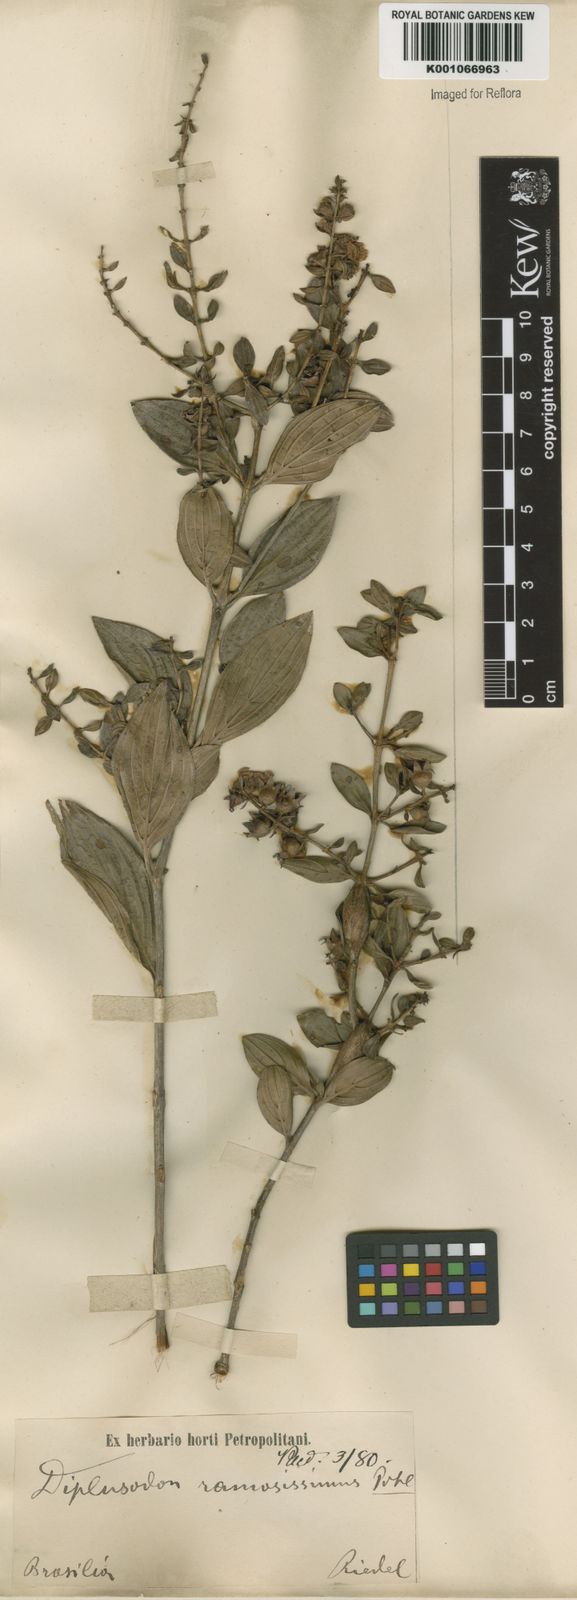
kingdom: Plantae
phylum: Tracheophyta
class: Magnoliopsida
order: Myrtales
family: Lythraceae
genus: Diplusodon
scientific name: Diplusodon ramosissimus
